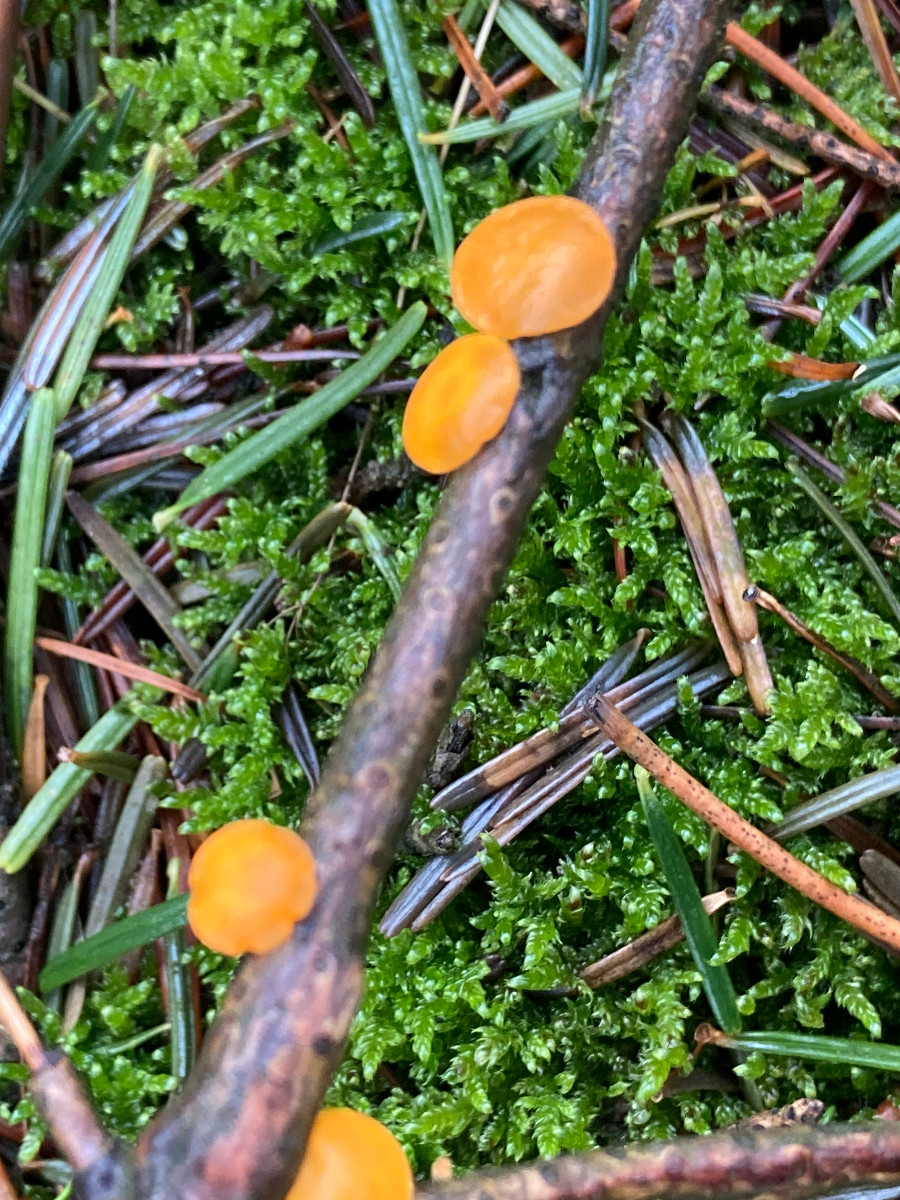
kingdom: Fungi
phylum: Ascomycota
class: Pezizomycetes
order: Pezizales
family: Sarcoscyphaceae
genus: Pithya
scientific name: Pithya vulgaris
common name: stor dukatbæger
